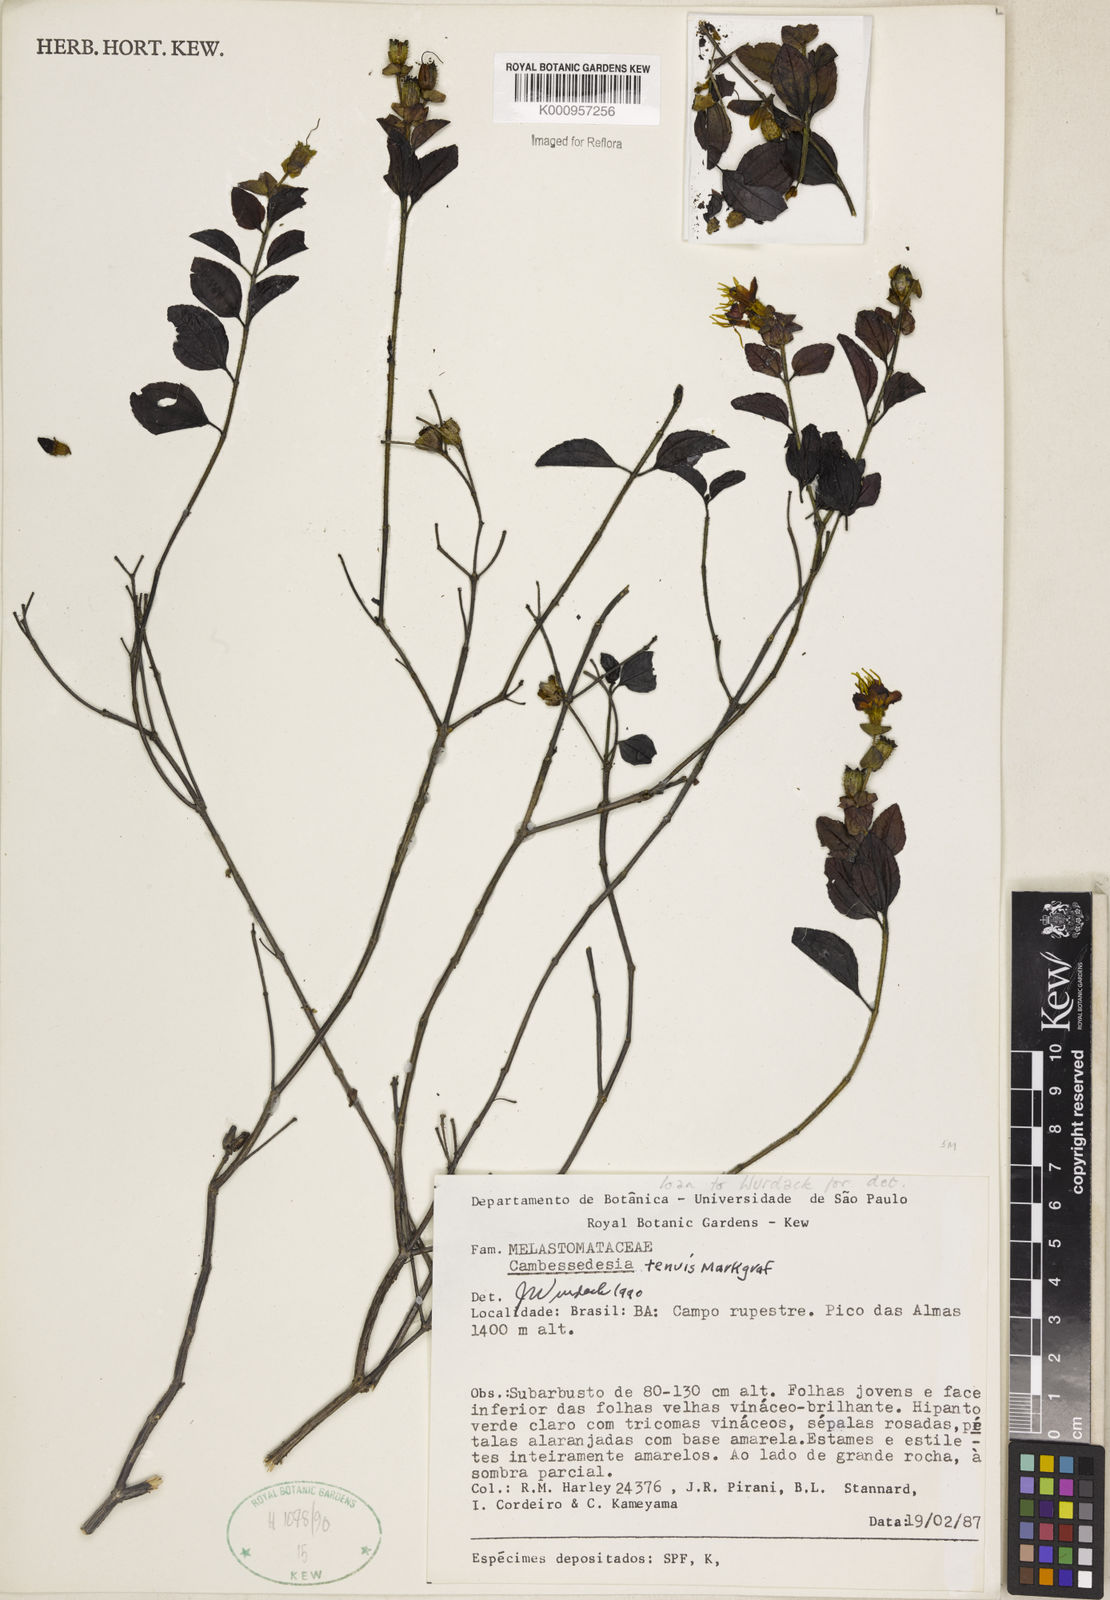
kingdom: Plantae
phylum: Tracheophyta
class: Magnoliopsida
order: Myrtales
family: Melastomataceae
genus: Cambessedesia
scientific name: Cambessedesia tenuis
